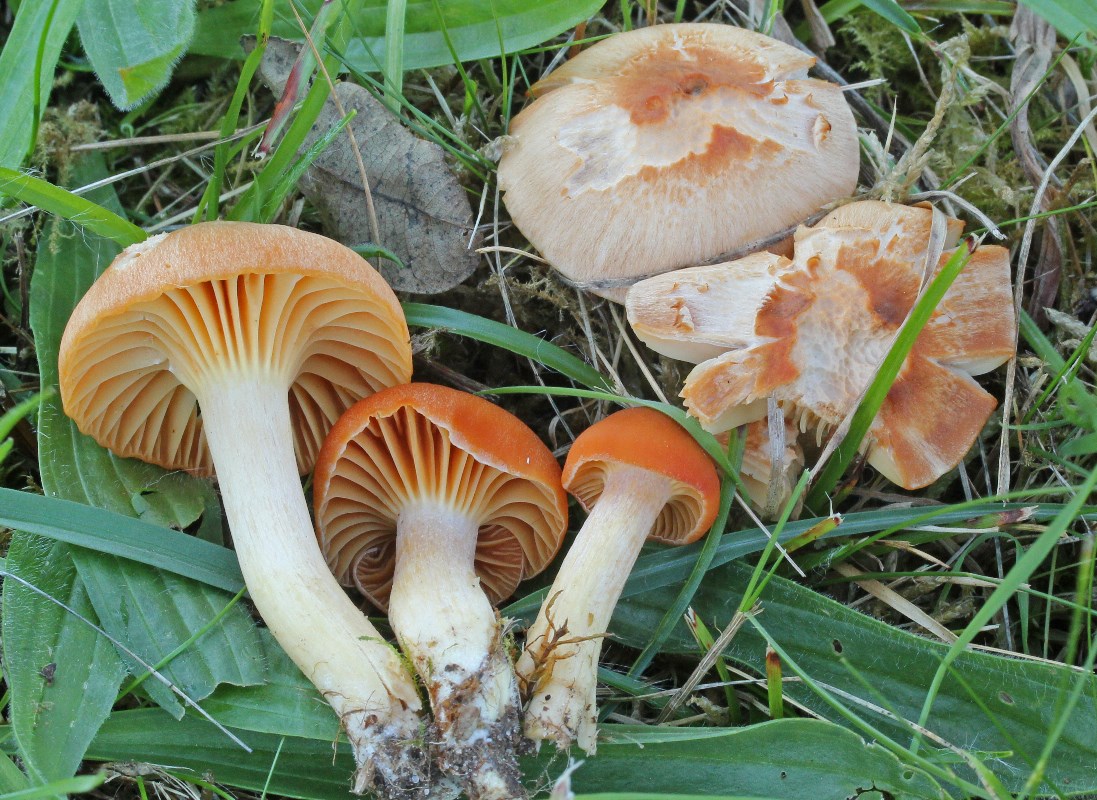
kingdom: Fungi
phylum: Basidiomycota
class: Agaricomycetes
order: Agaricales
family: Hygrophoraceae
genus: Cuphophyllus
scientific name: Cuphophyllus pratensis
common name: eng-vokshat
